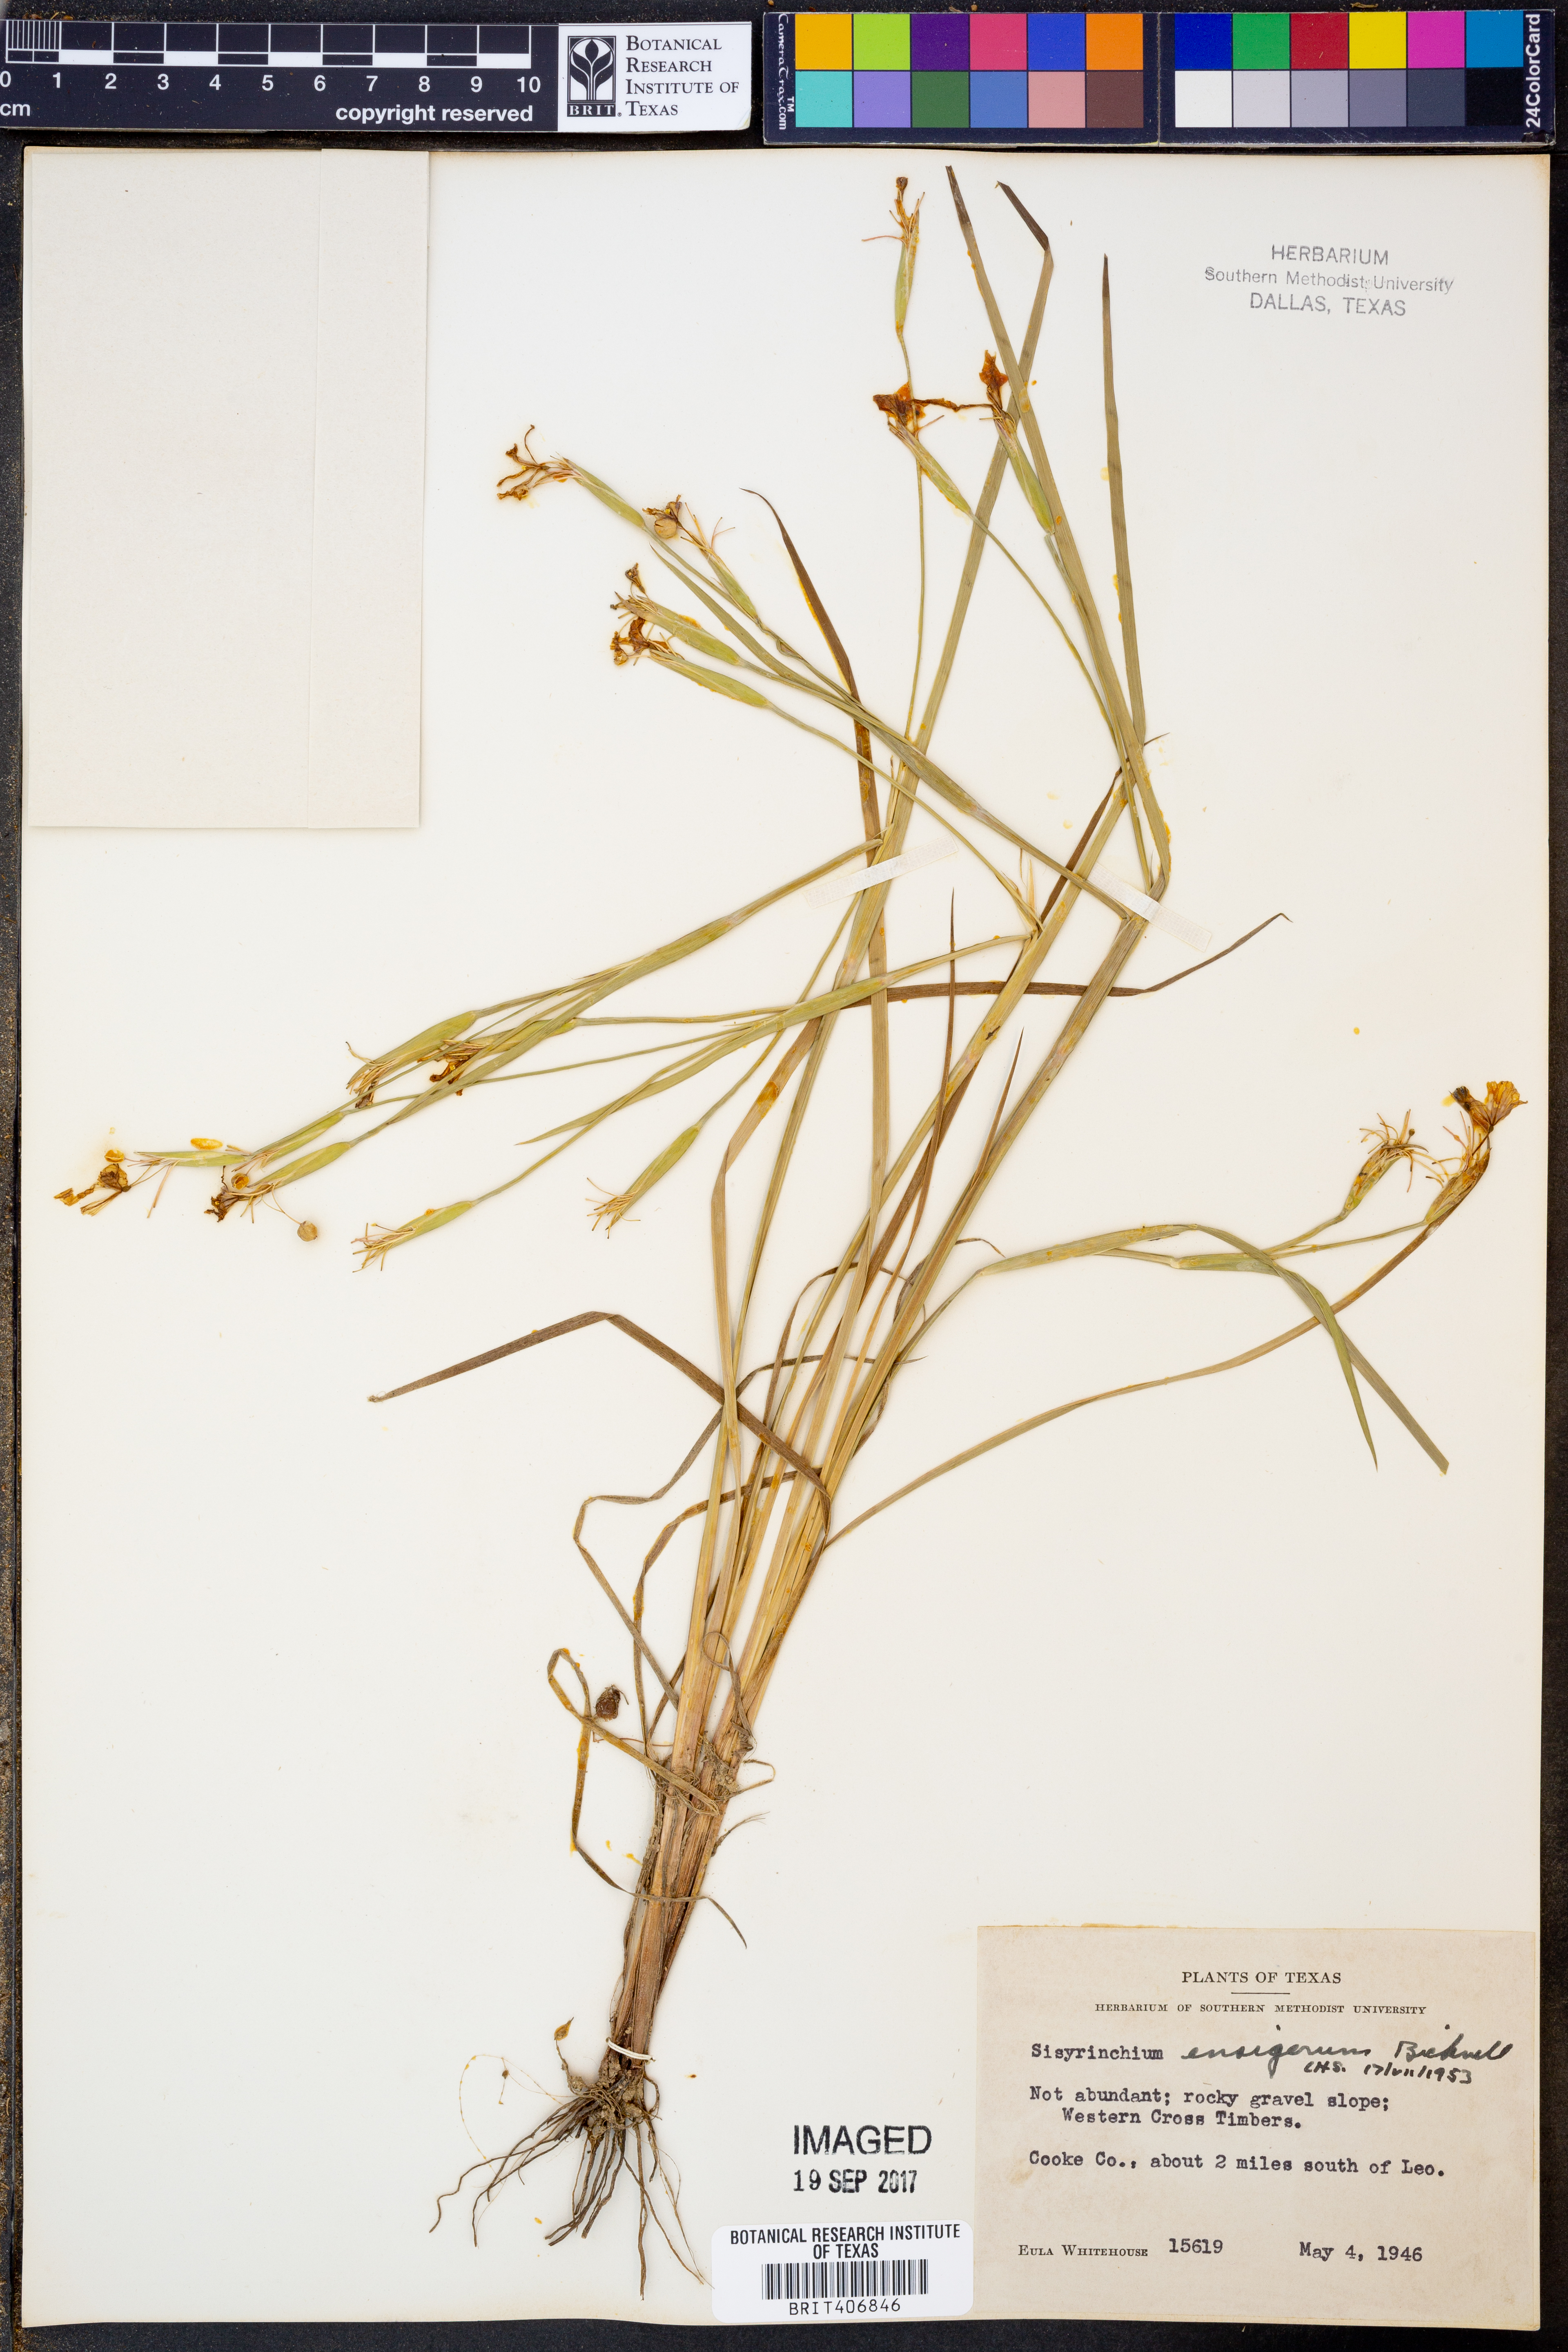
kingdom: Plantae
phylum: Tracheophyta
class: Liliopsida
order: Asparagales
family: Iridaceae
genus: Sisyrinchium
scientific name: Sisyrinchium ensigerum
